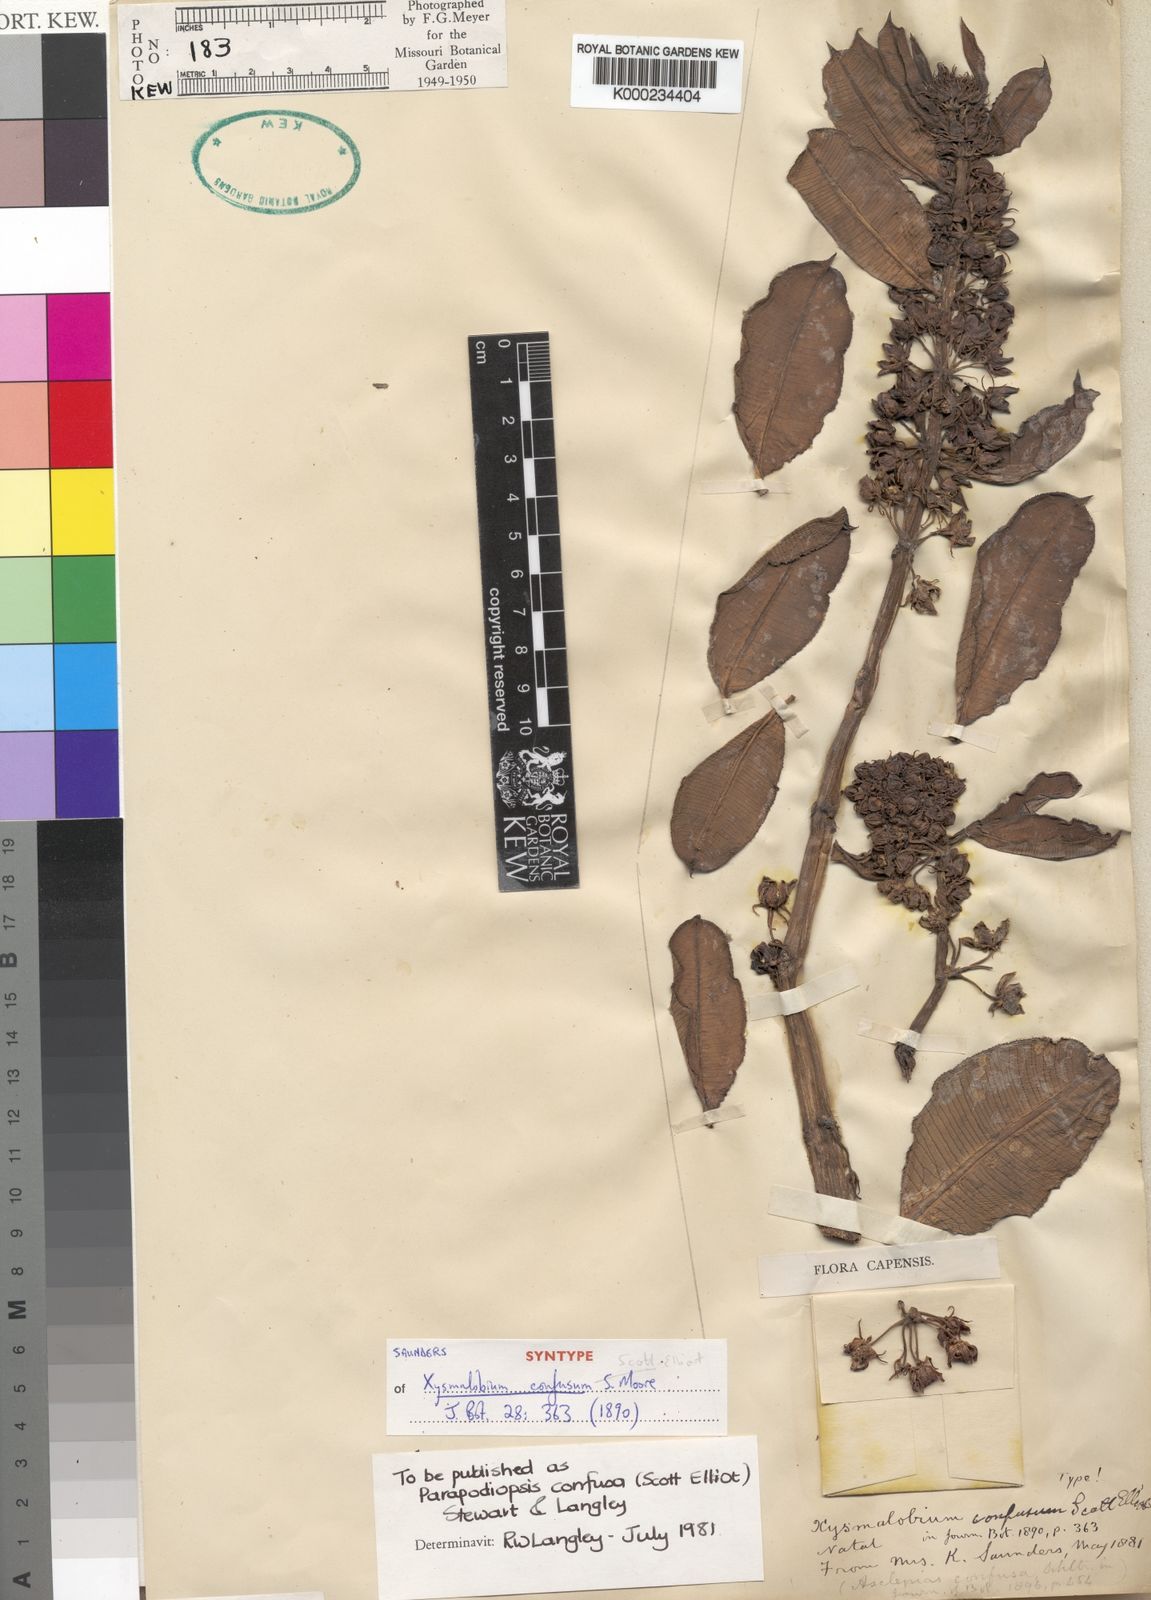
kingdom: Plantae
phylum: Tracheophyta
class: Magnoliopsida
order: Gentianales
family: Asclepiadaceae
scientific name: Asclepiadaceae
